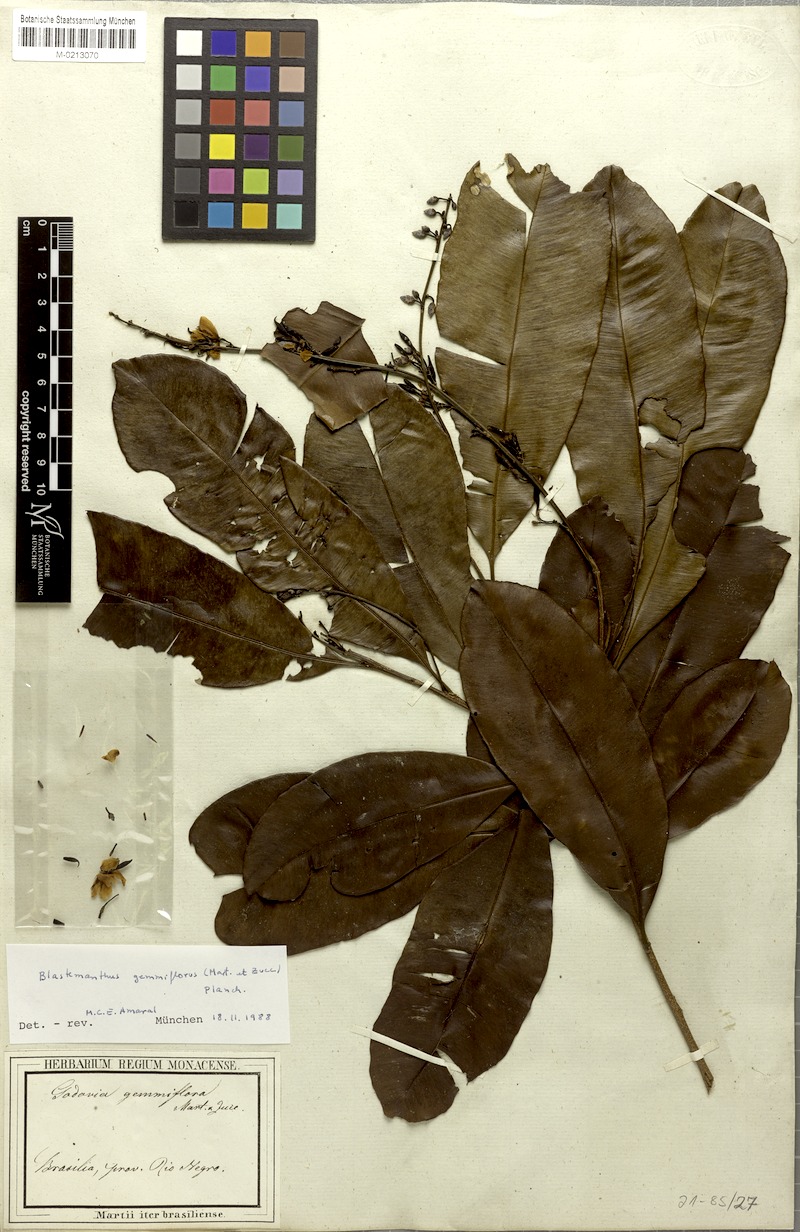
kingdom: Plantae
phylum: Tracheophyta
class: Magnoliopsida
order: Malpighiales
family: Ochnaceae
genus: Blastemanthus
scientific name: Blastemanthus gemmiflorus
